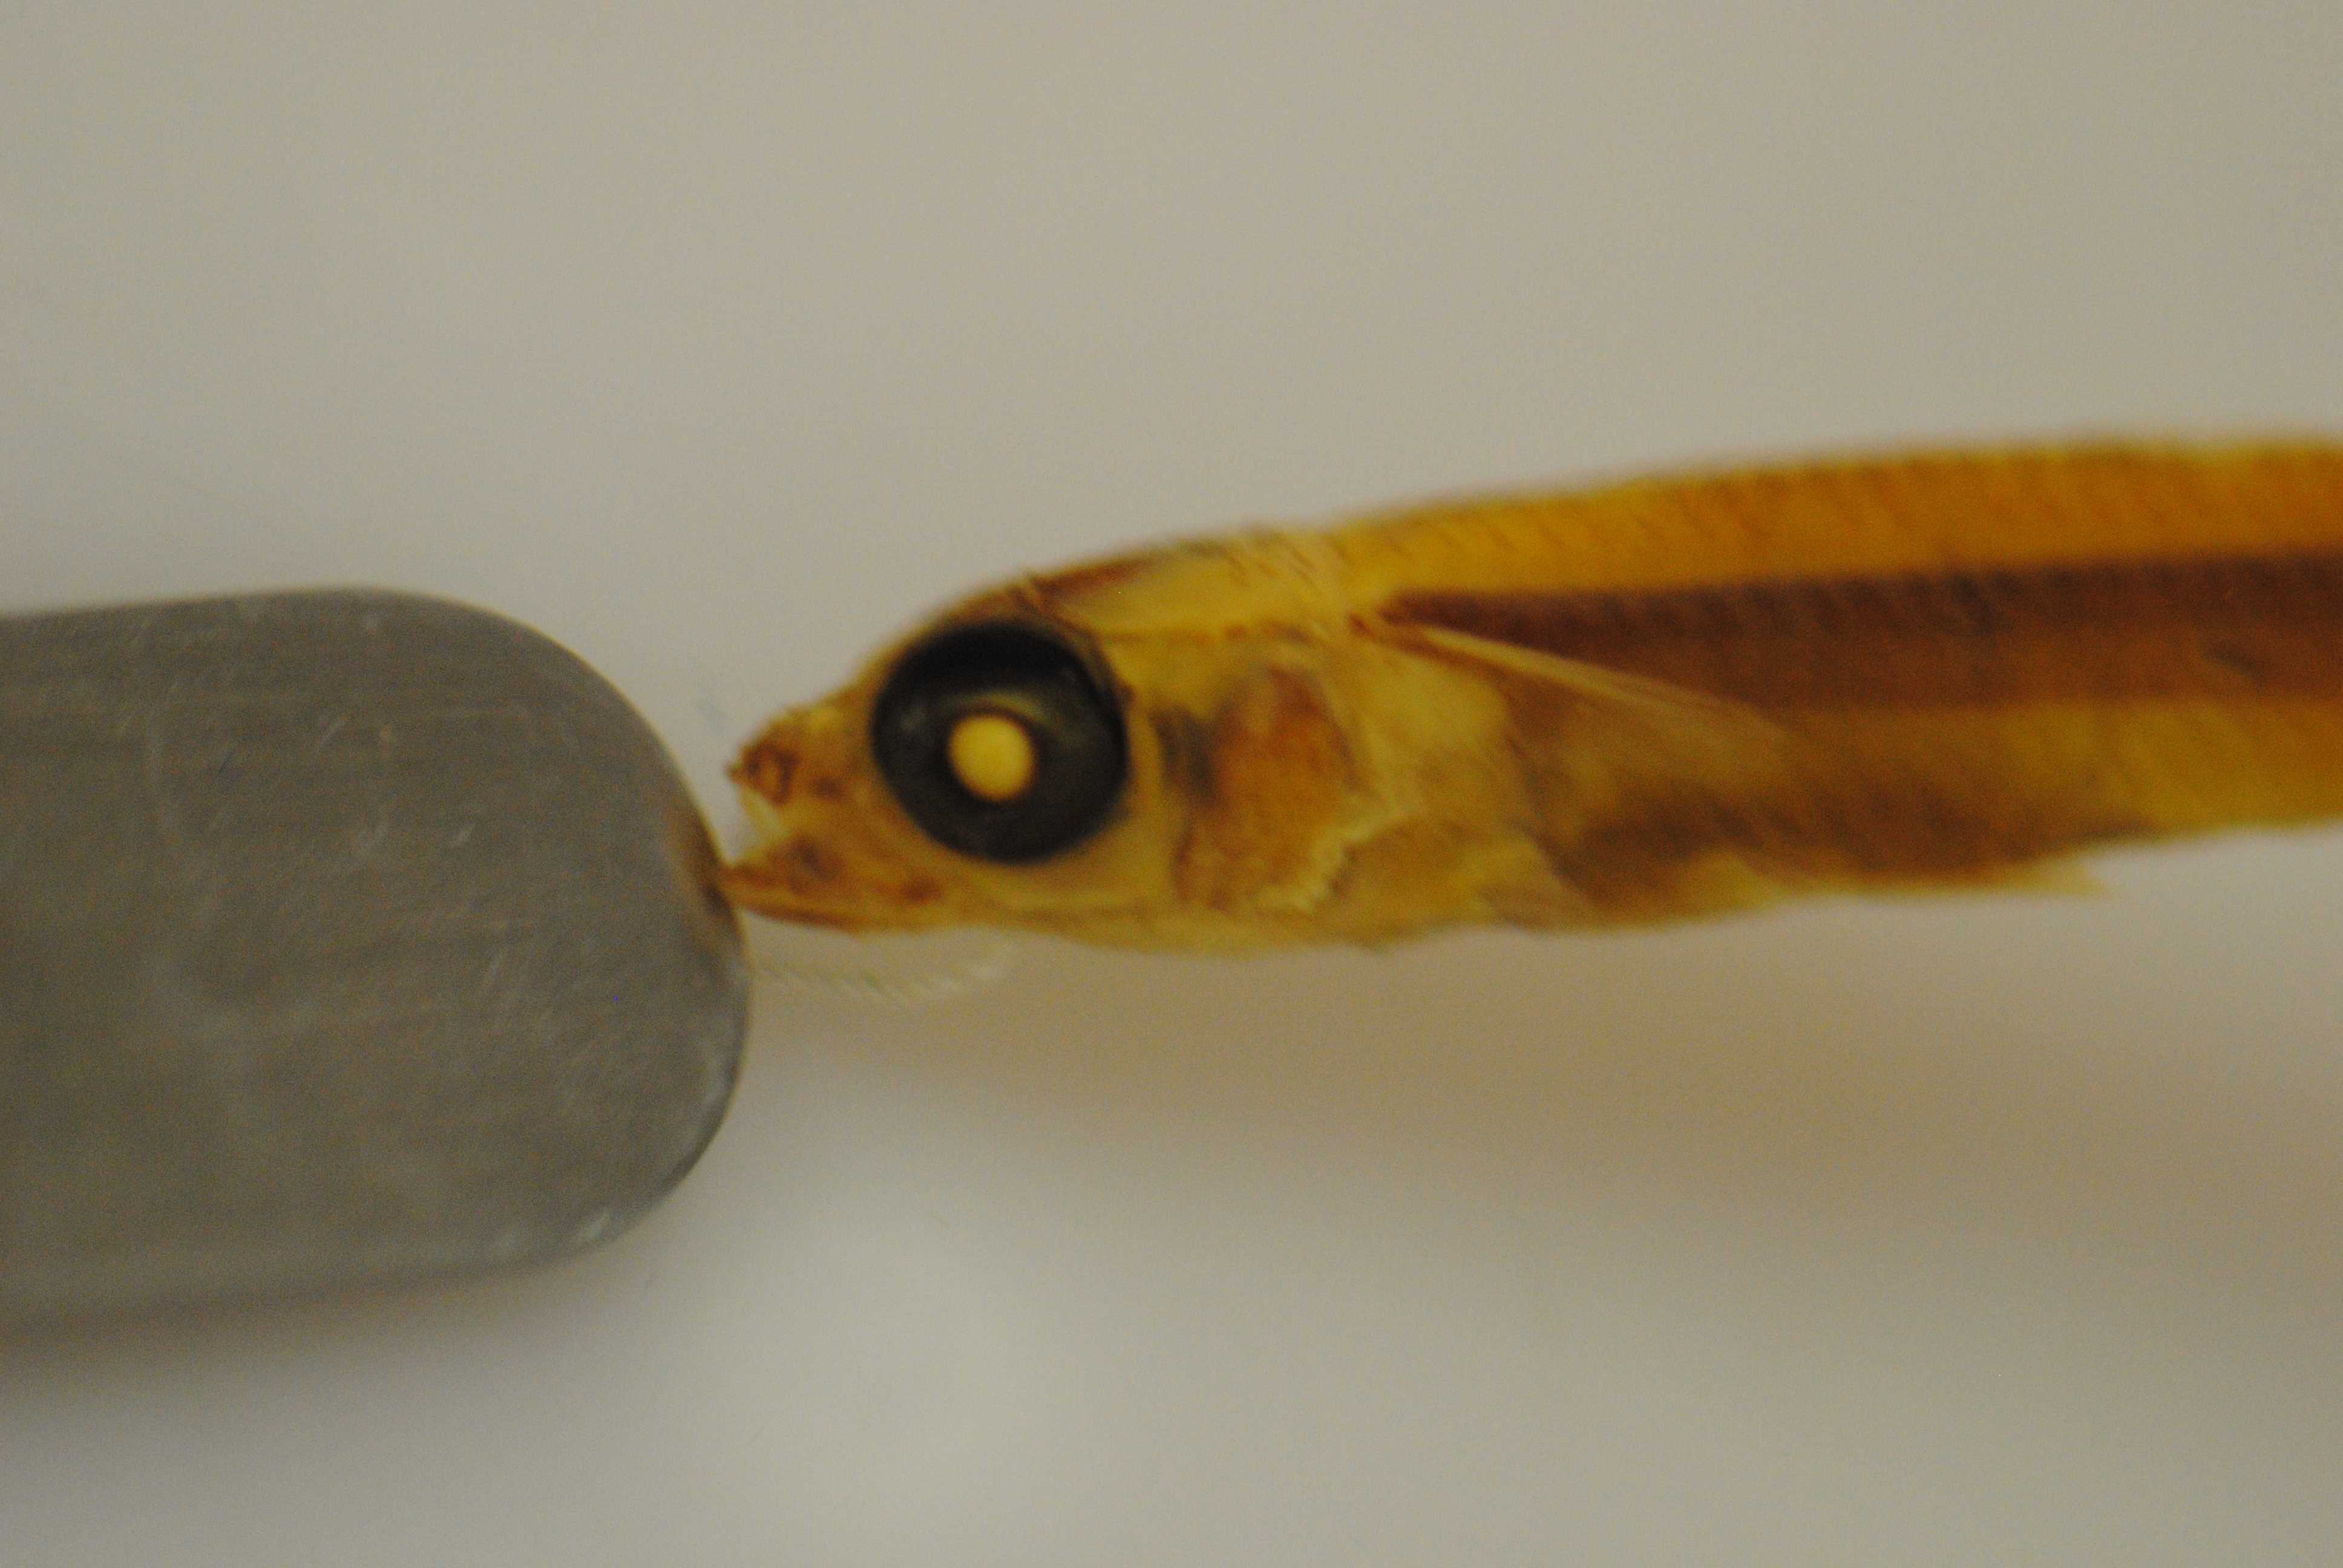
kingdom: Animalia
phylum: Chordata
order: Atheriniformes
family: Atherinidae
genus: Hypoatherina
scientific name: Hypoatherina barnesi
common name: Slender silverside
